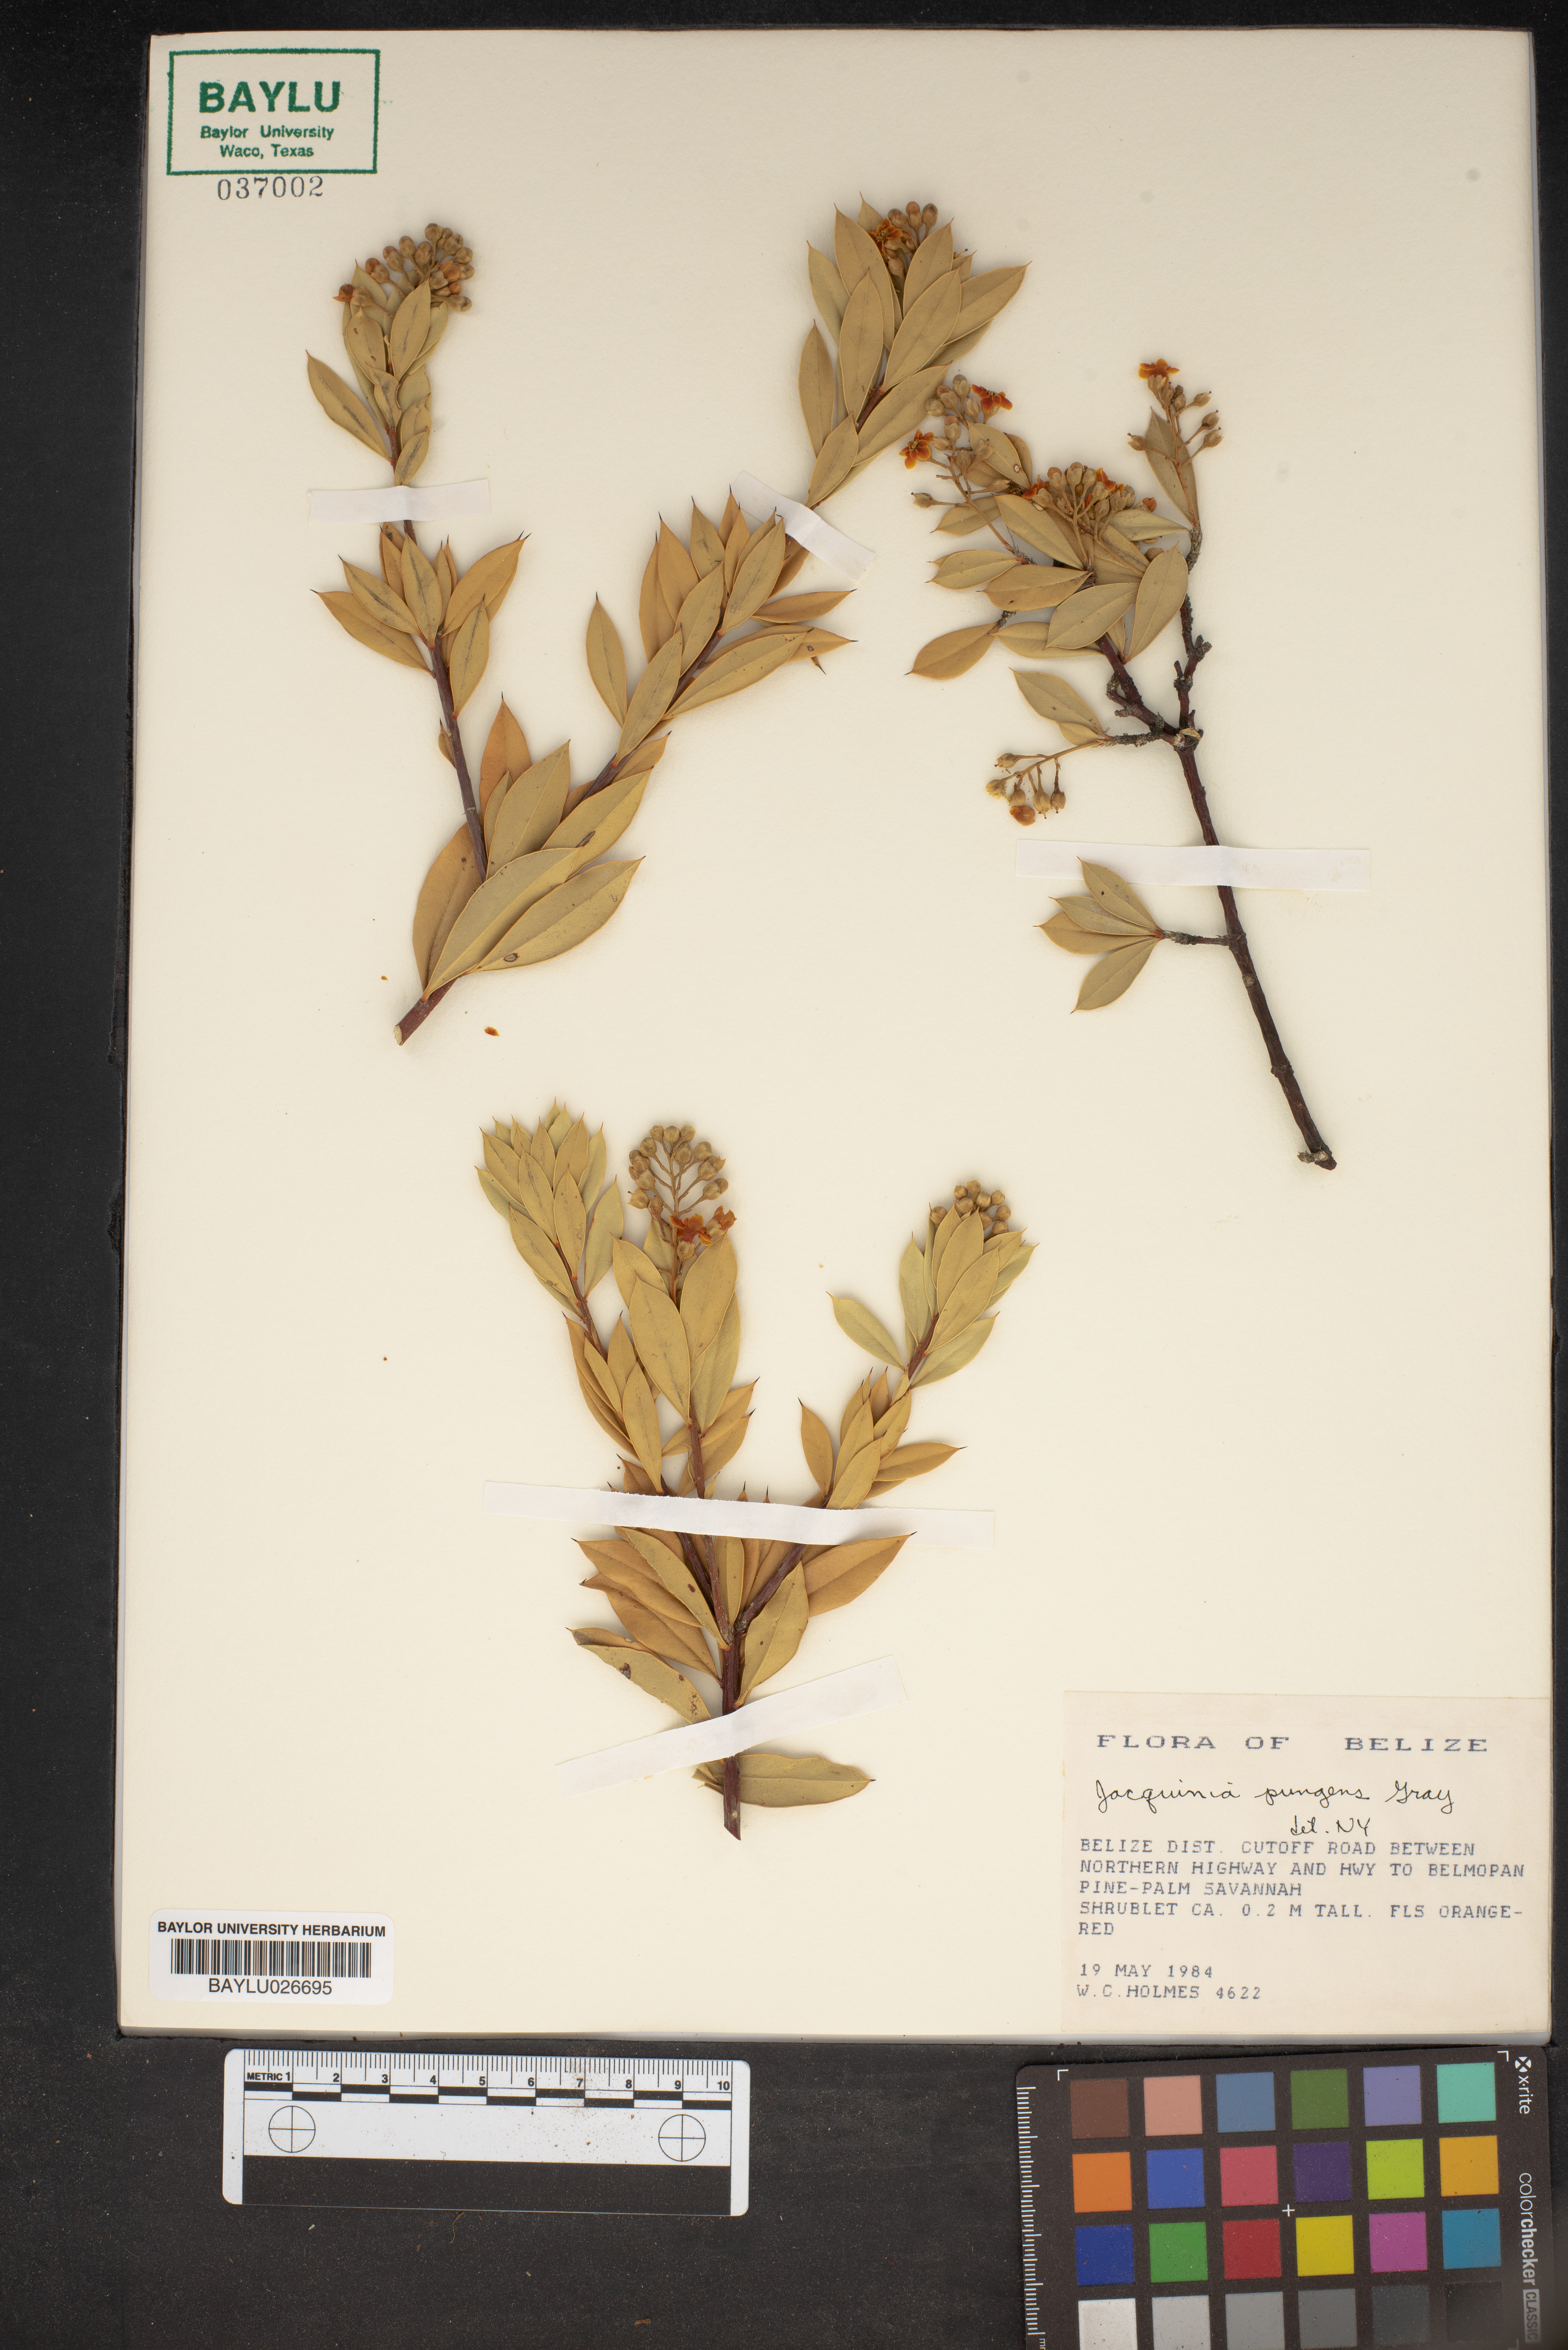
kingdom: Plantae
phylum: Tracheophyta
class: Magnoliopsida
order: Ericales
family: Primulaceae
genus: Bonellia
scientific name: Bonellia nervosa
